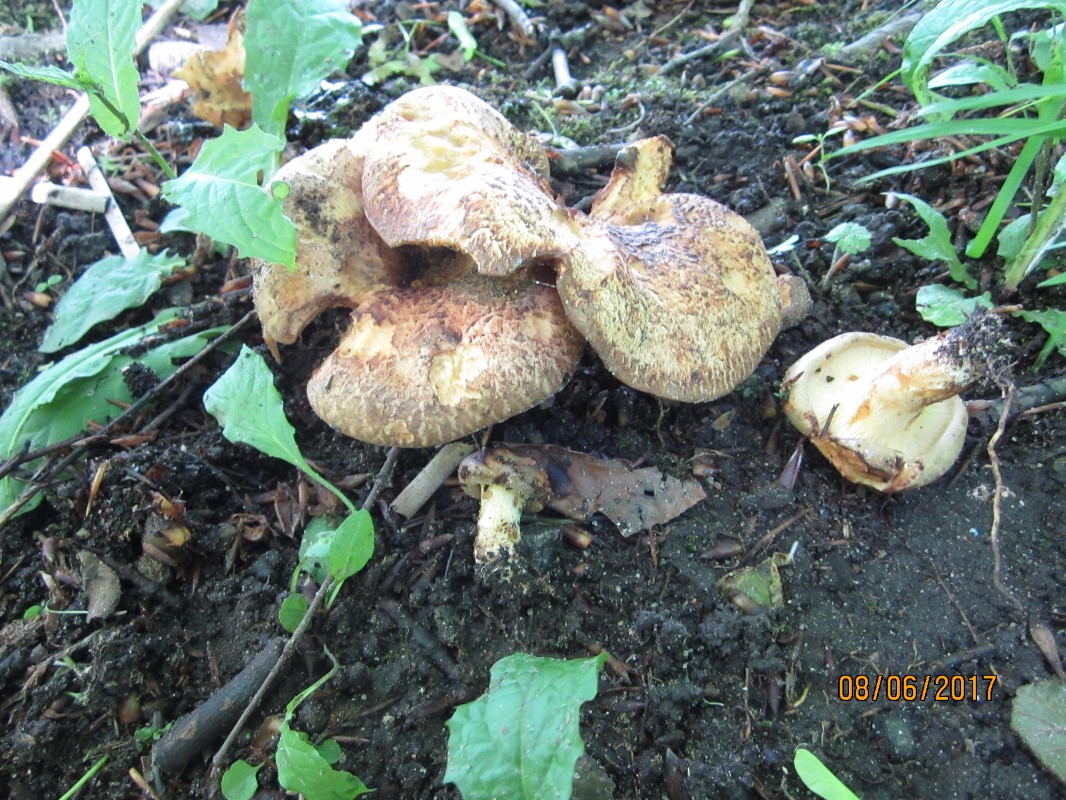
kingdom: Fungi
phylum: Basidiomycota
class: Agaricomycetes
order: Boletales
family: Paxillaceae
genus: Paxillus
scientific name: Paxillus rubicundulus
